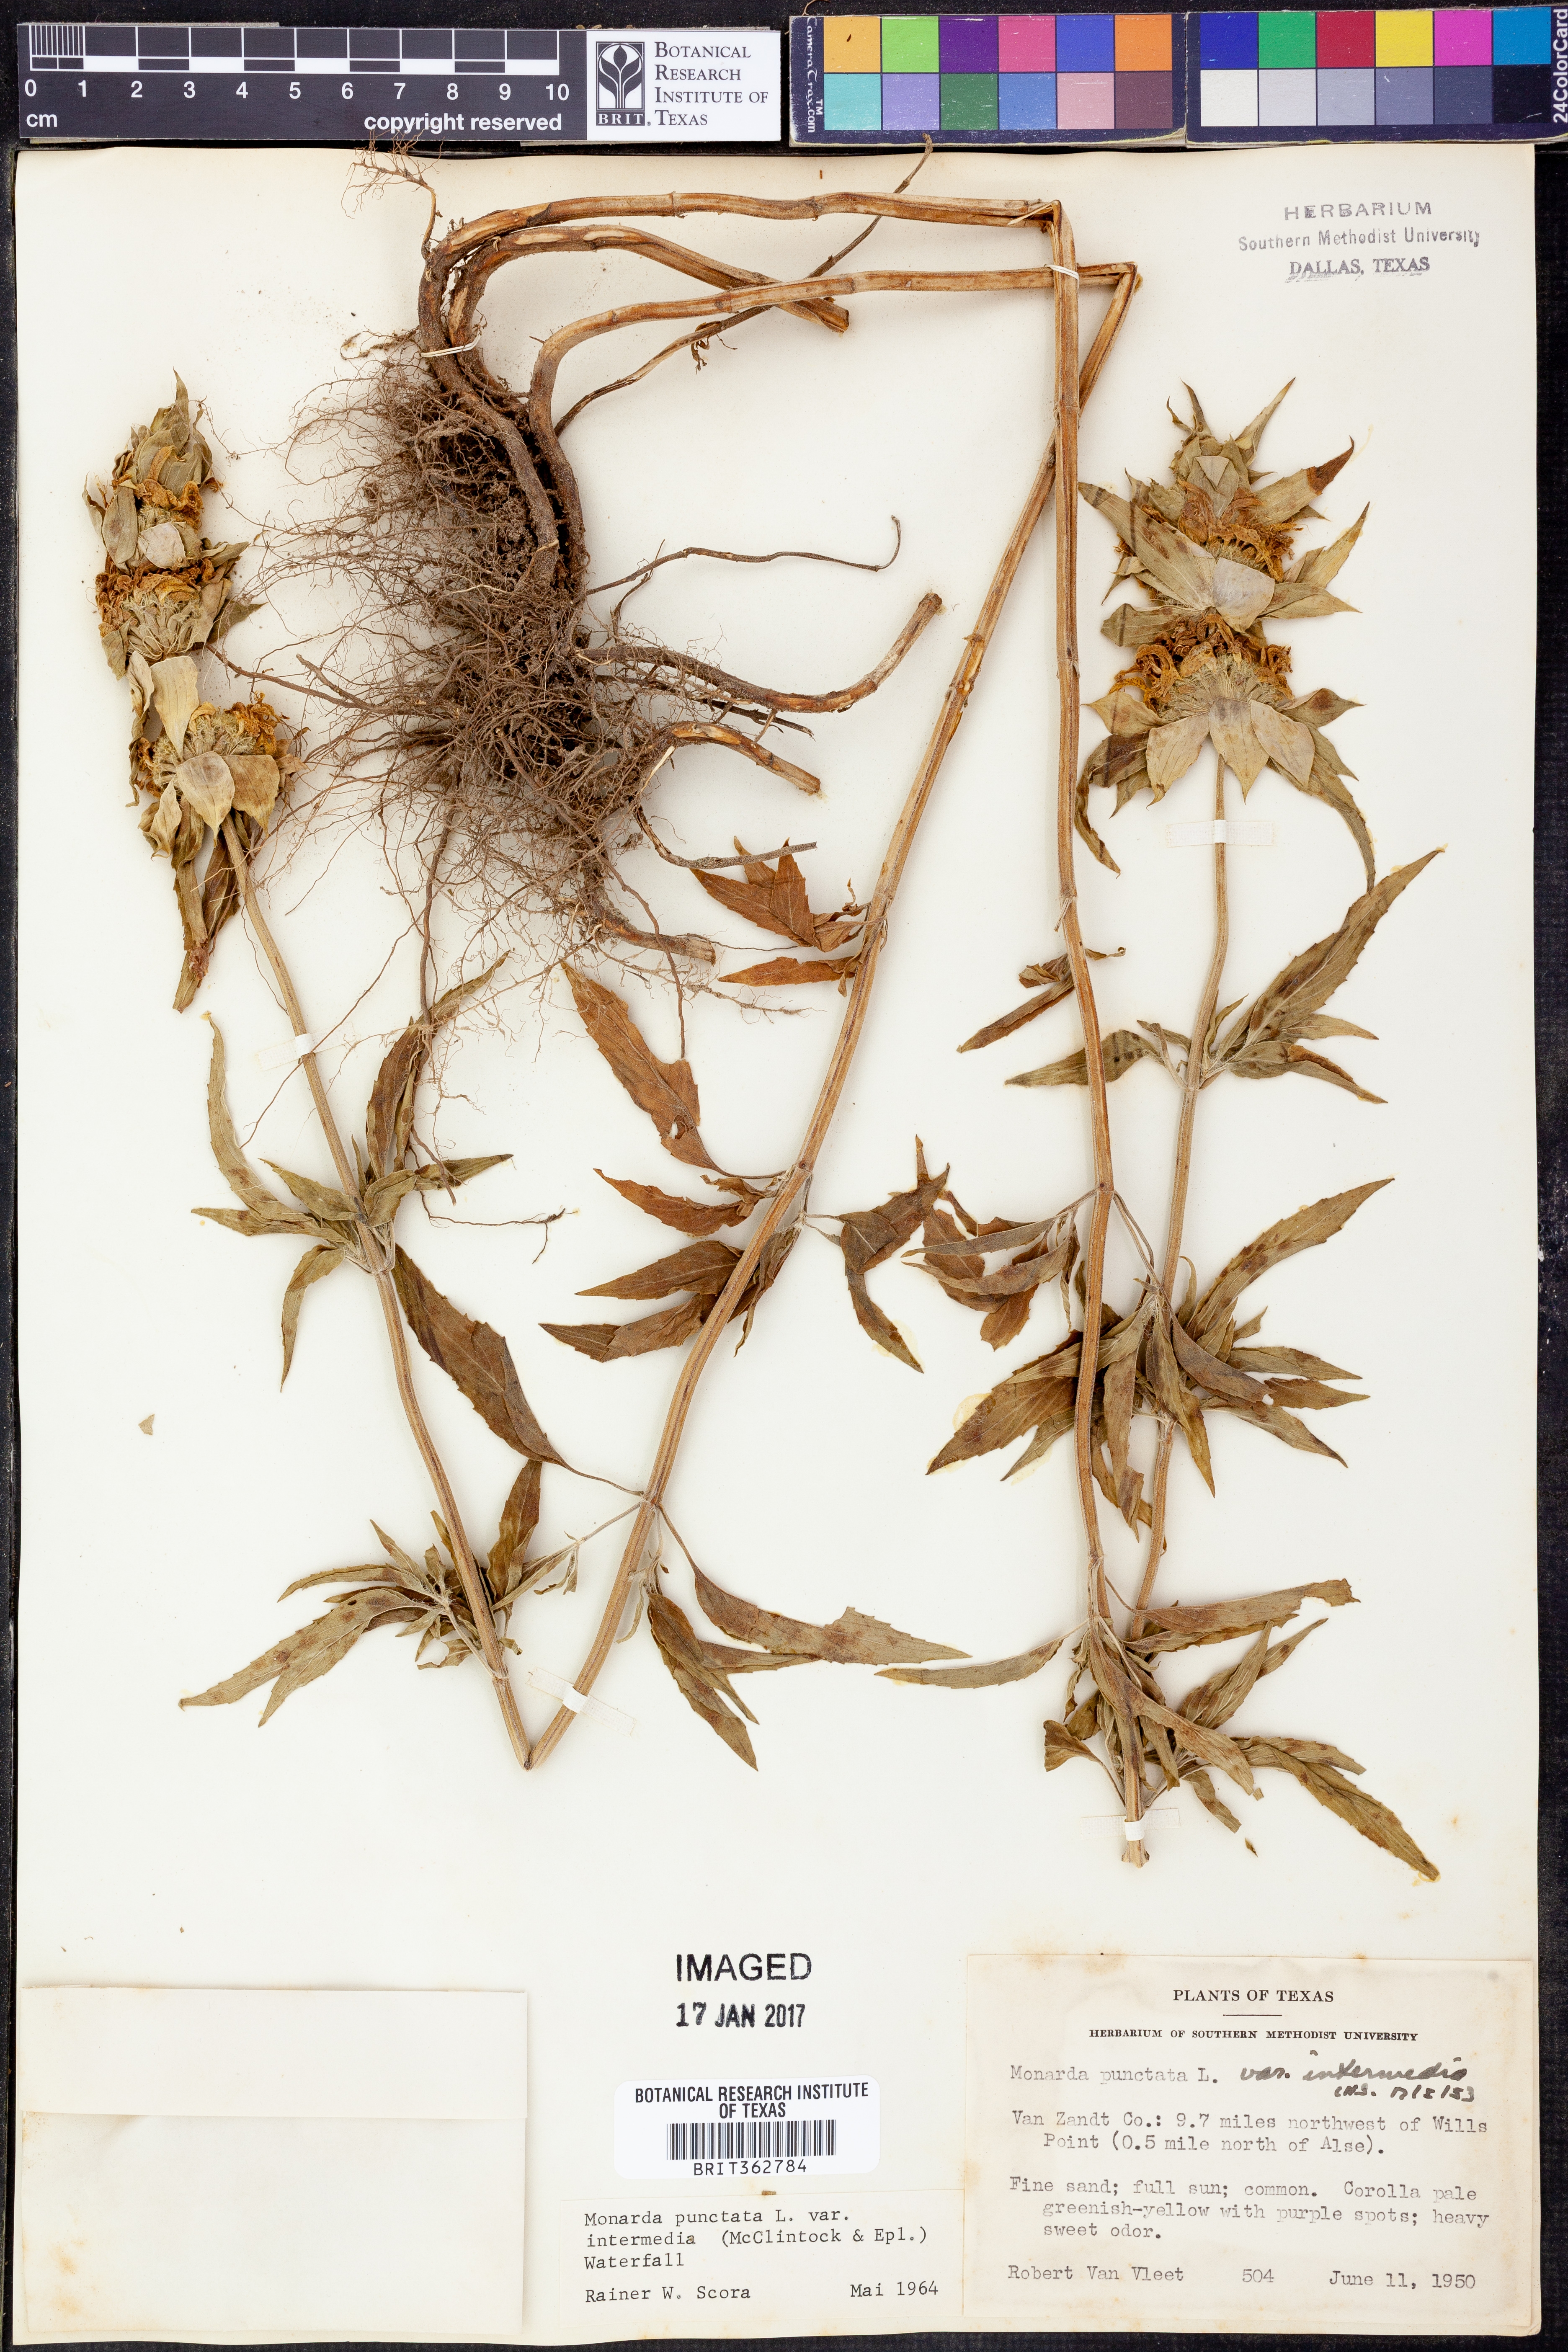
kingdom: Plantae
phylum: Tracheophyta
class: Magnoliopsida
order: Lamiales
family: Lamiaceae
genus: Monarda
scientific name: Monarda punctata
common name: Dotted monarda
